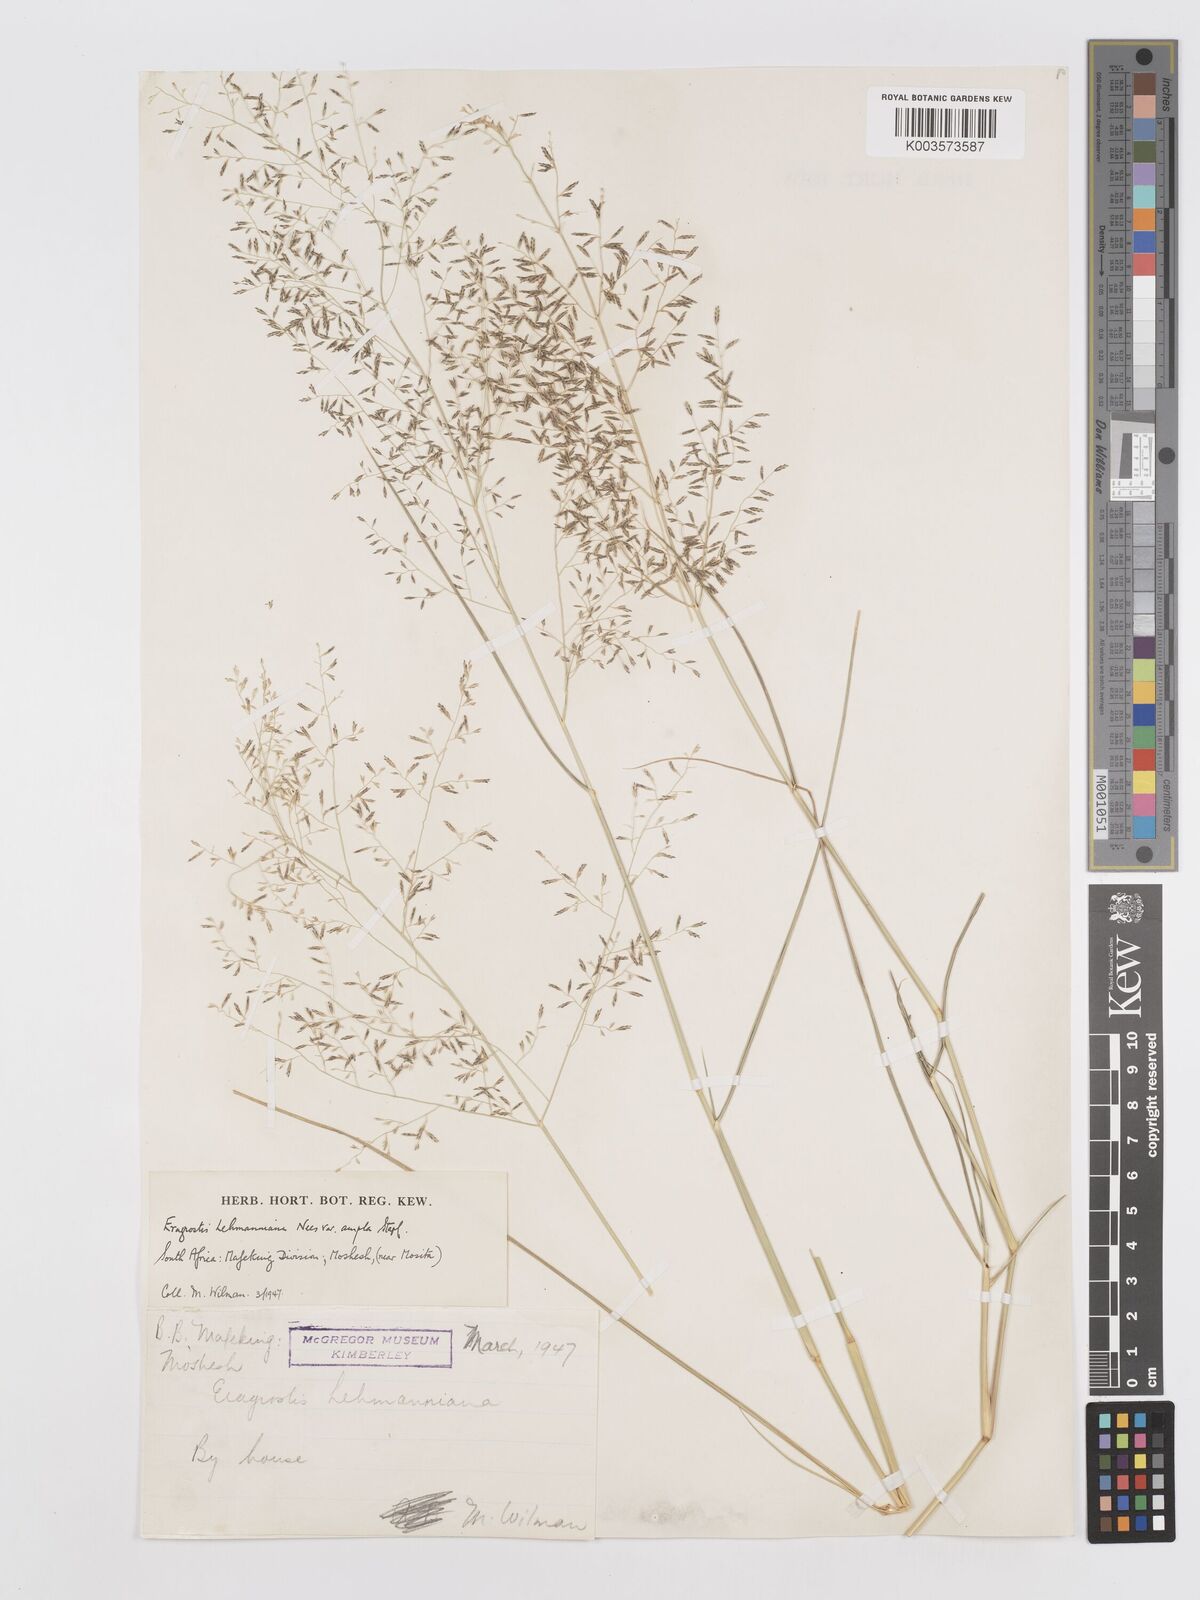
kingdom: Plantae
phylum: Tracheophyta
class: Liliopsida
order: Poales
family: Poaceae
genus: Eragrostis
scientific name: Eragrostis lehmanniana
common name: Lehmann lovegrass
